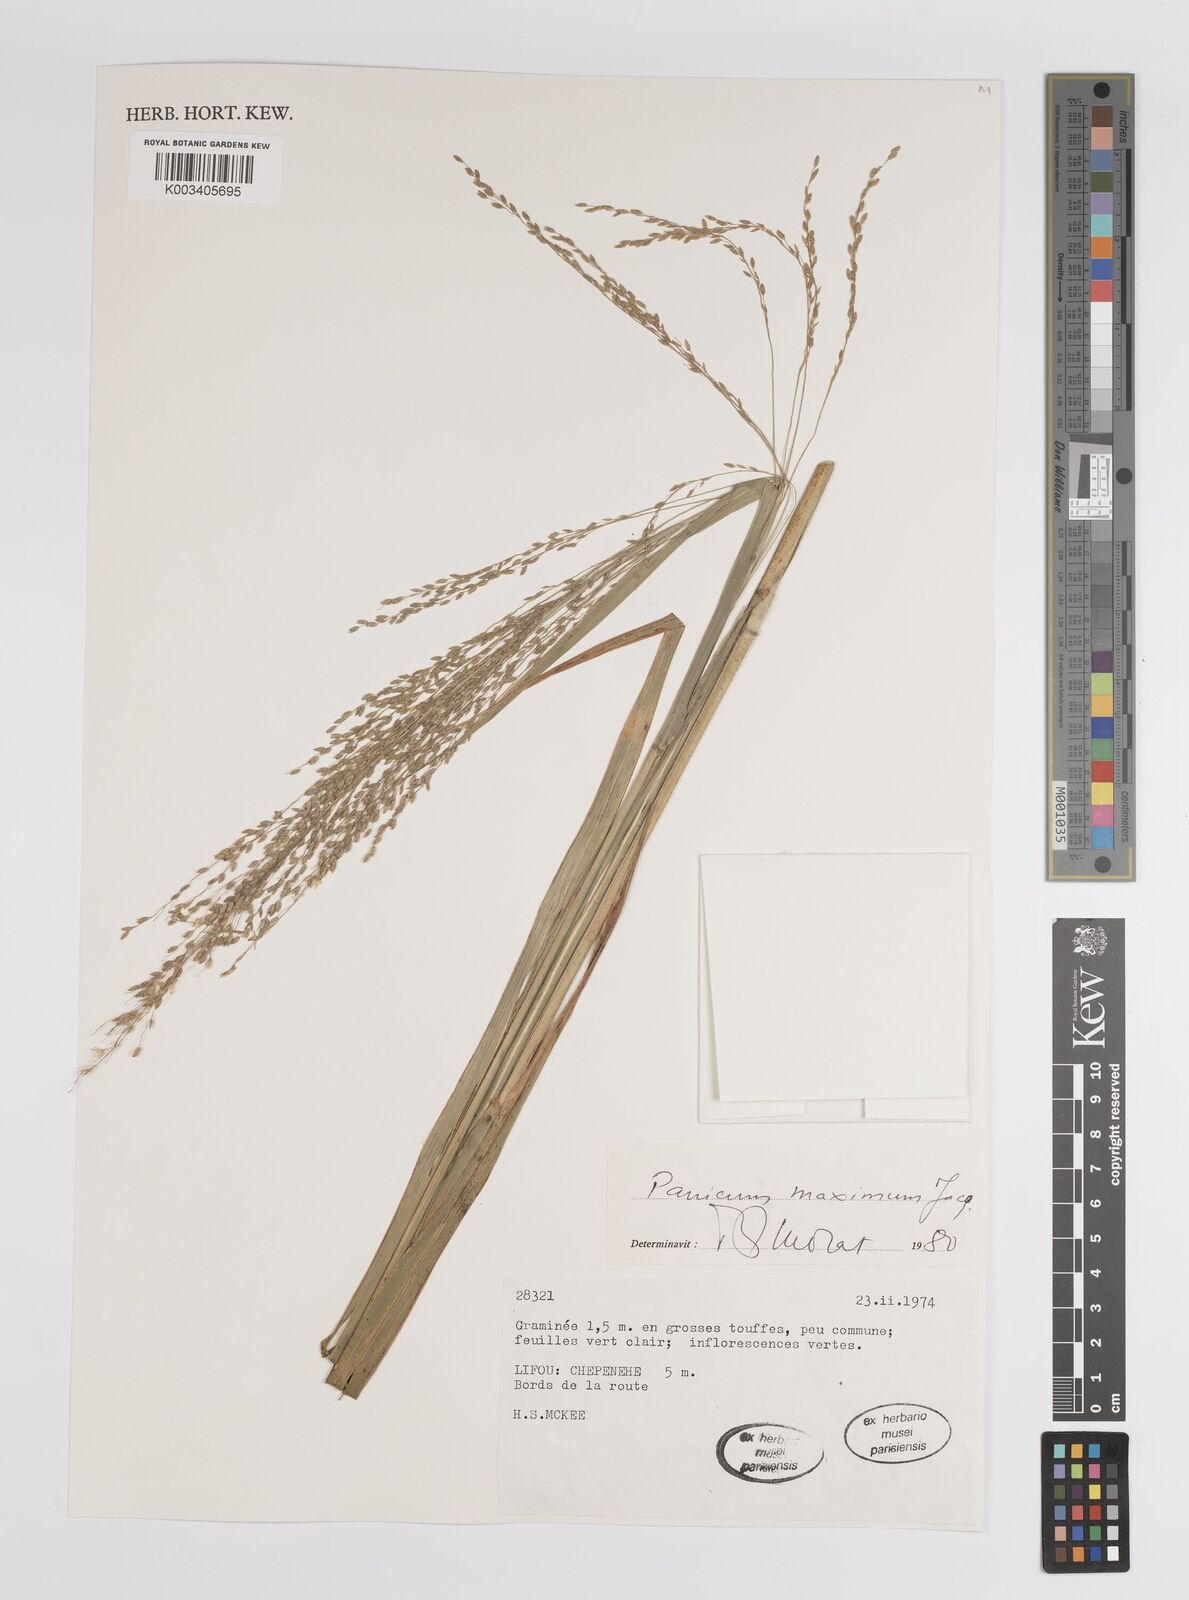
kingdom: Plantae
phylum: Tracheophyta
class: Liliopsida
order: Poales
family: Poaceae
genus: Megathyrsus
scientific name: Megathyrsus maximus
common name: Guineagrass
